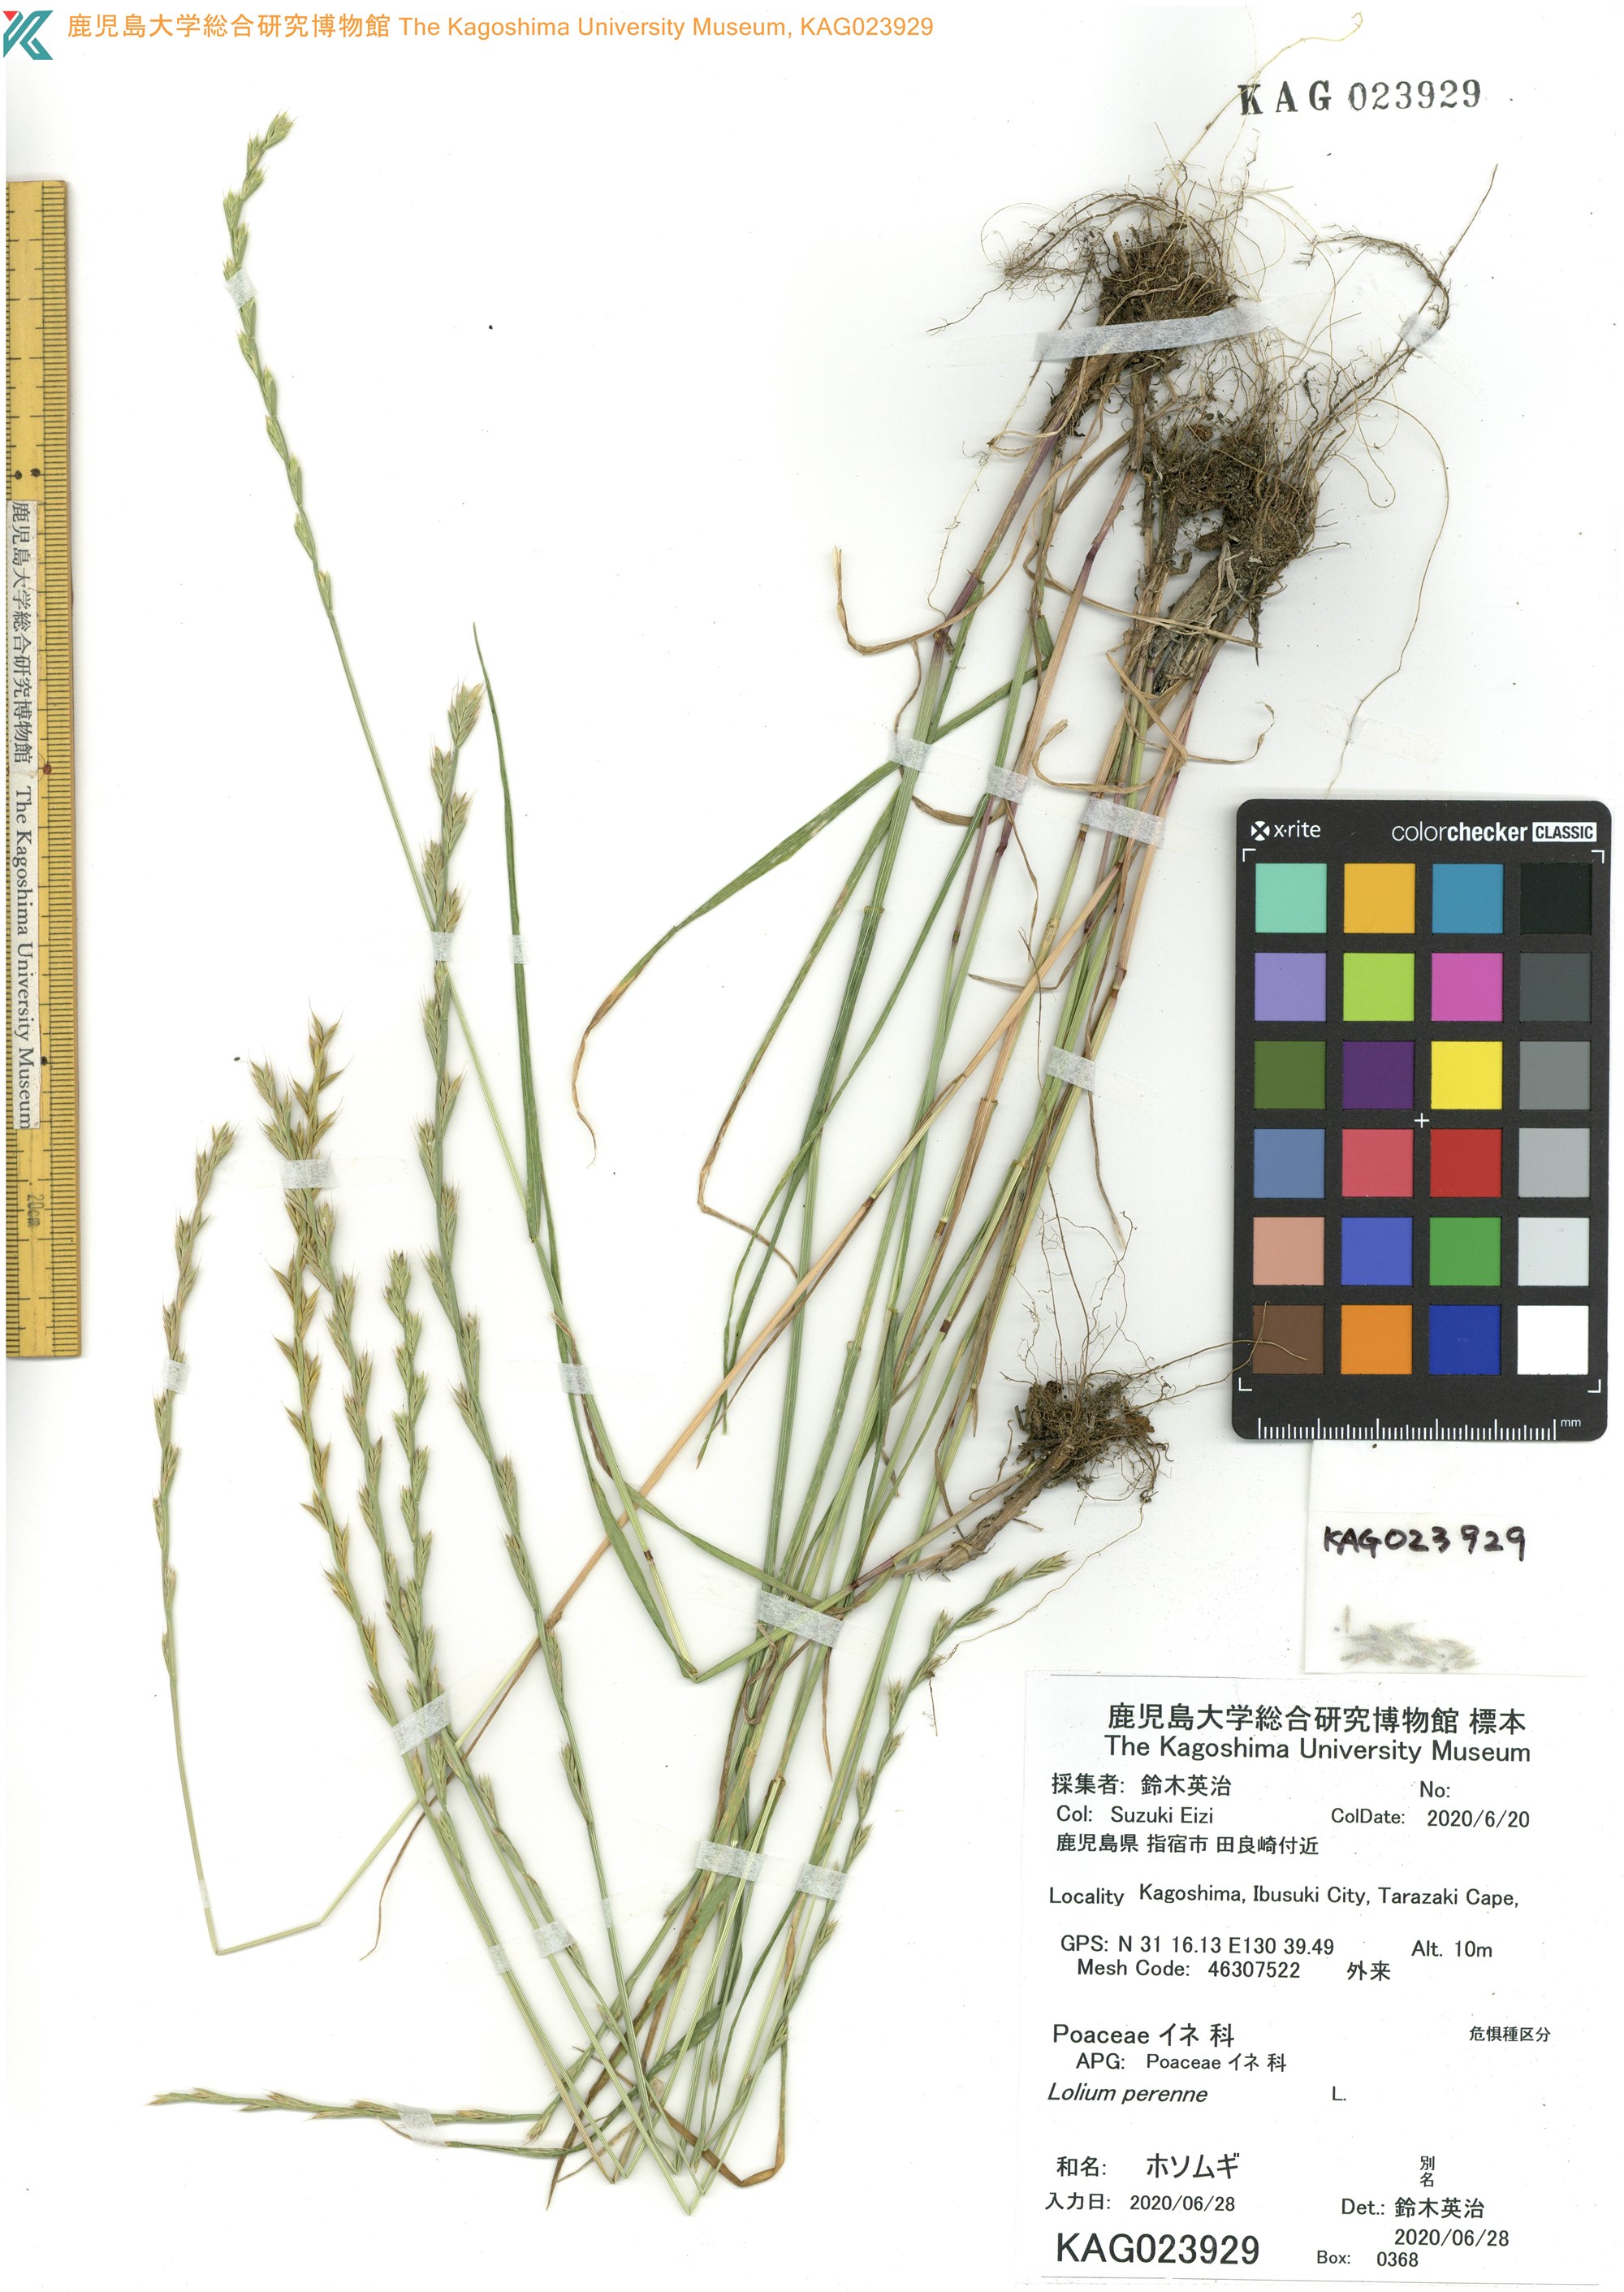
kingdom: Plantae
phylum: Tracheophyta
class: Liliopsida
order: Poales
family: Poaceae
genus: Lolium
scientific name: Lolium perenne
